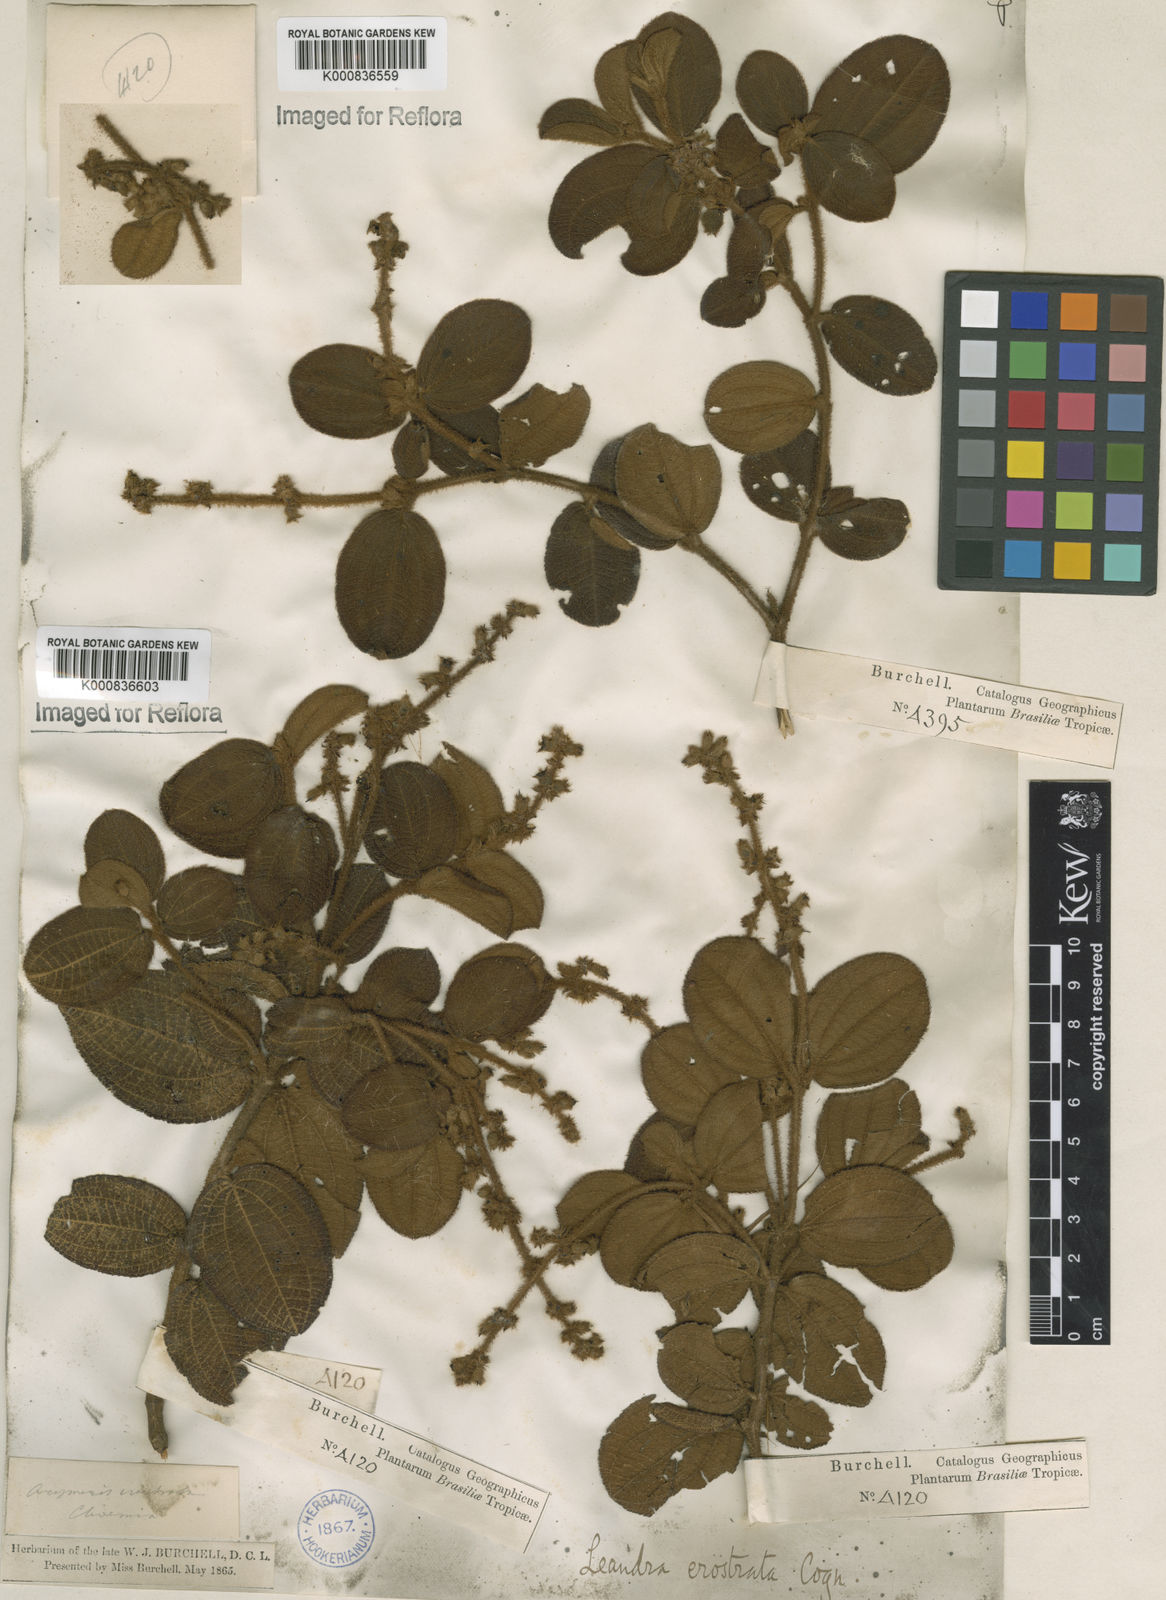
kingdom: Plantae
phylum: Tracheophyta
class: Magnoliopsida
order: Myrtales
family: Melastomataceae
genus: Miconia
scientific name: Miconia erostrata
